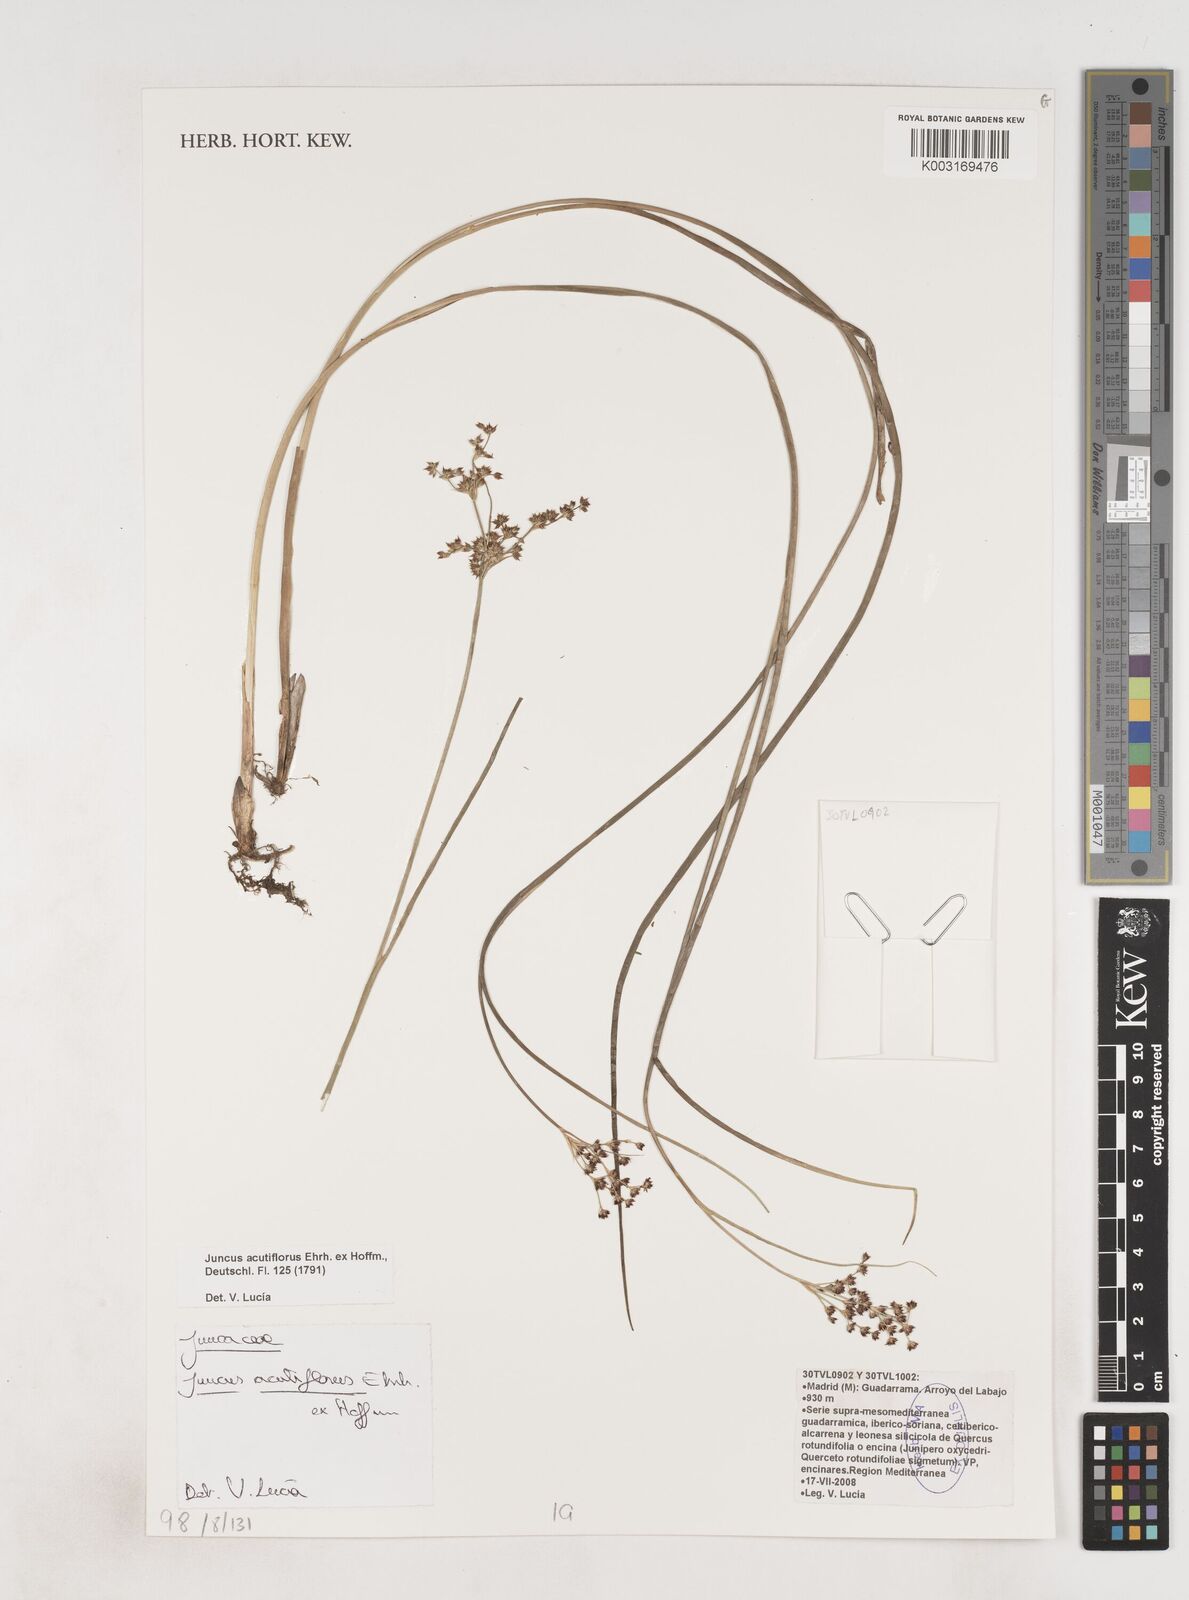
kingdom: Plantae
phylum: Tracheophyta
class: Liliopsida
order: Poales
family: Juncaceae
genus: Juncus
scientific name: Juncus acutiflorus
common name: Sharp-flowered rush
